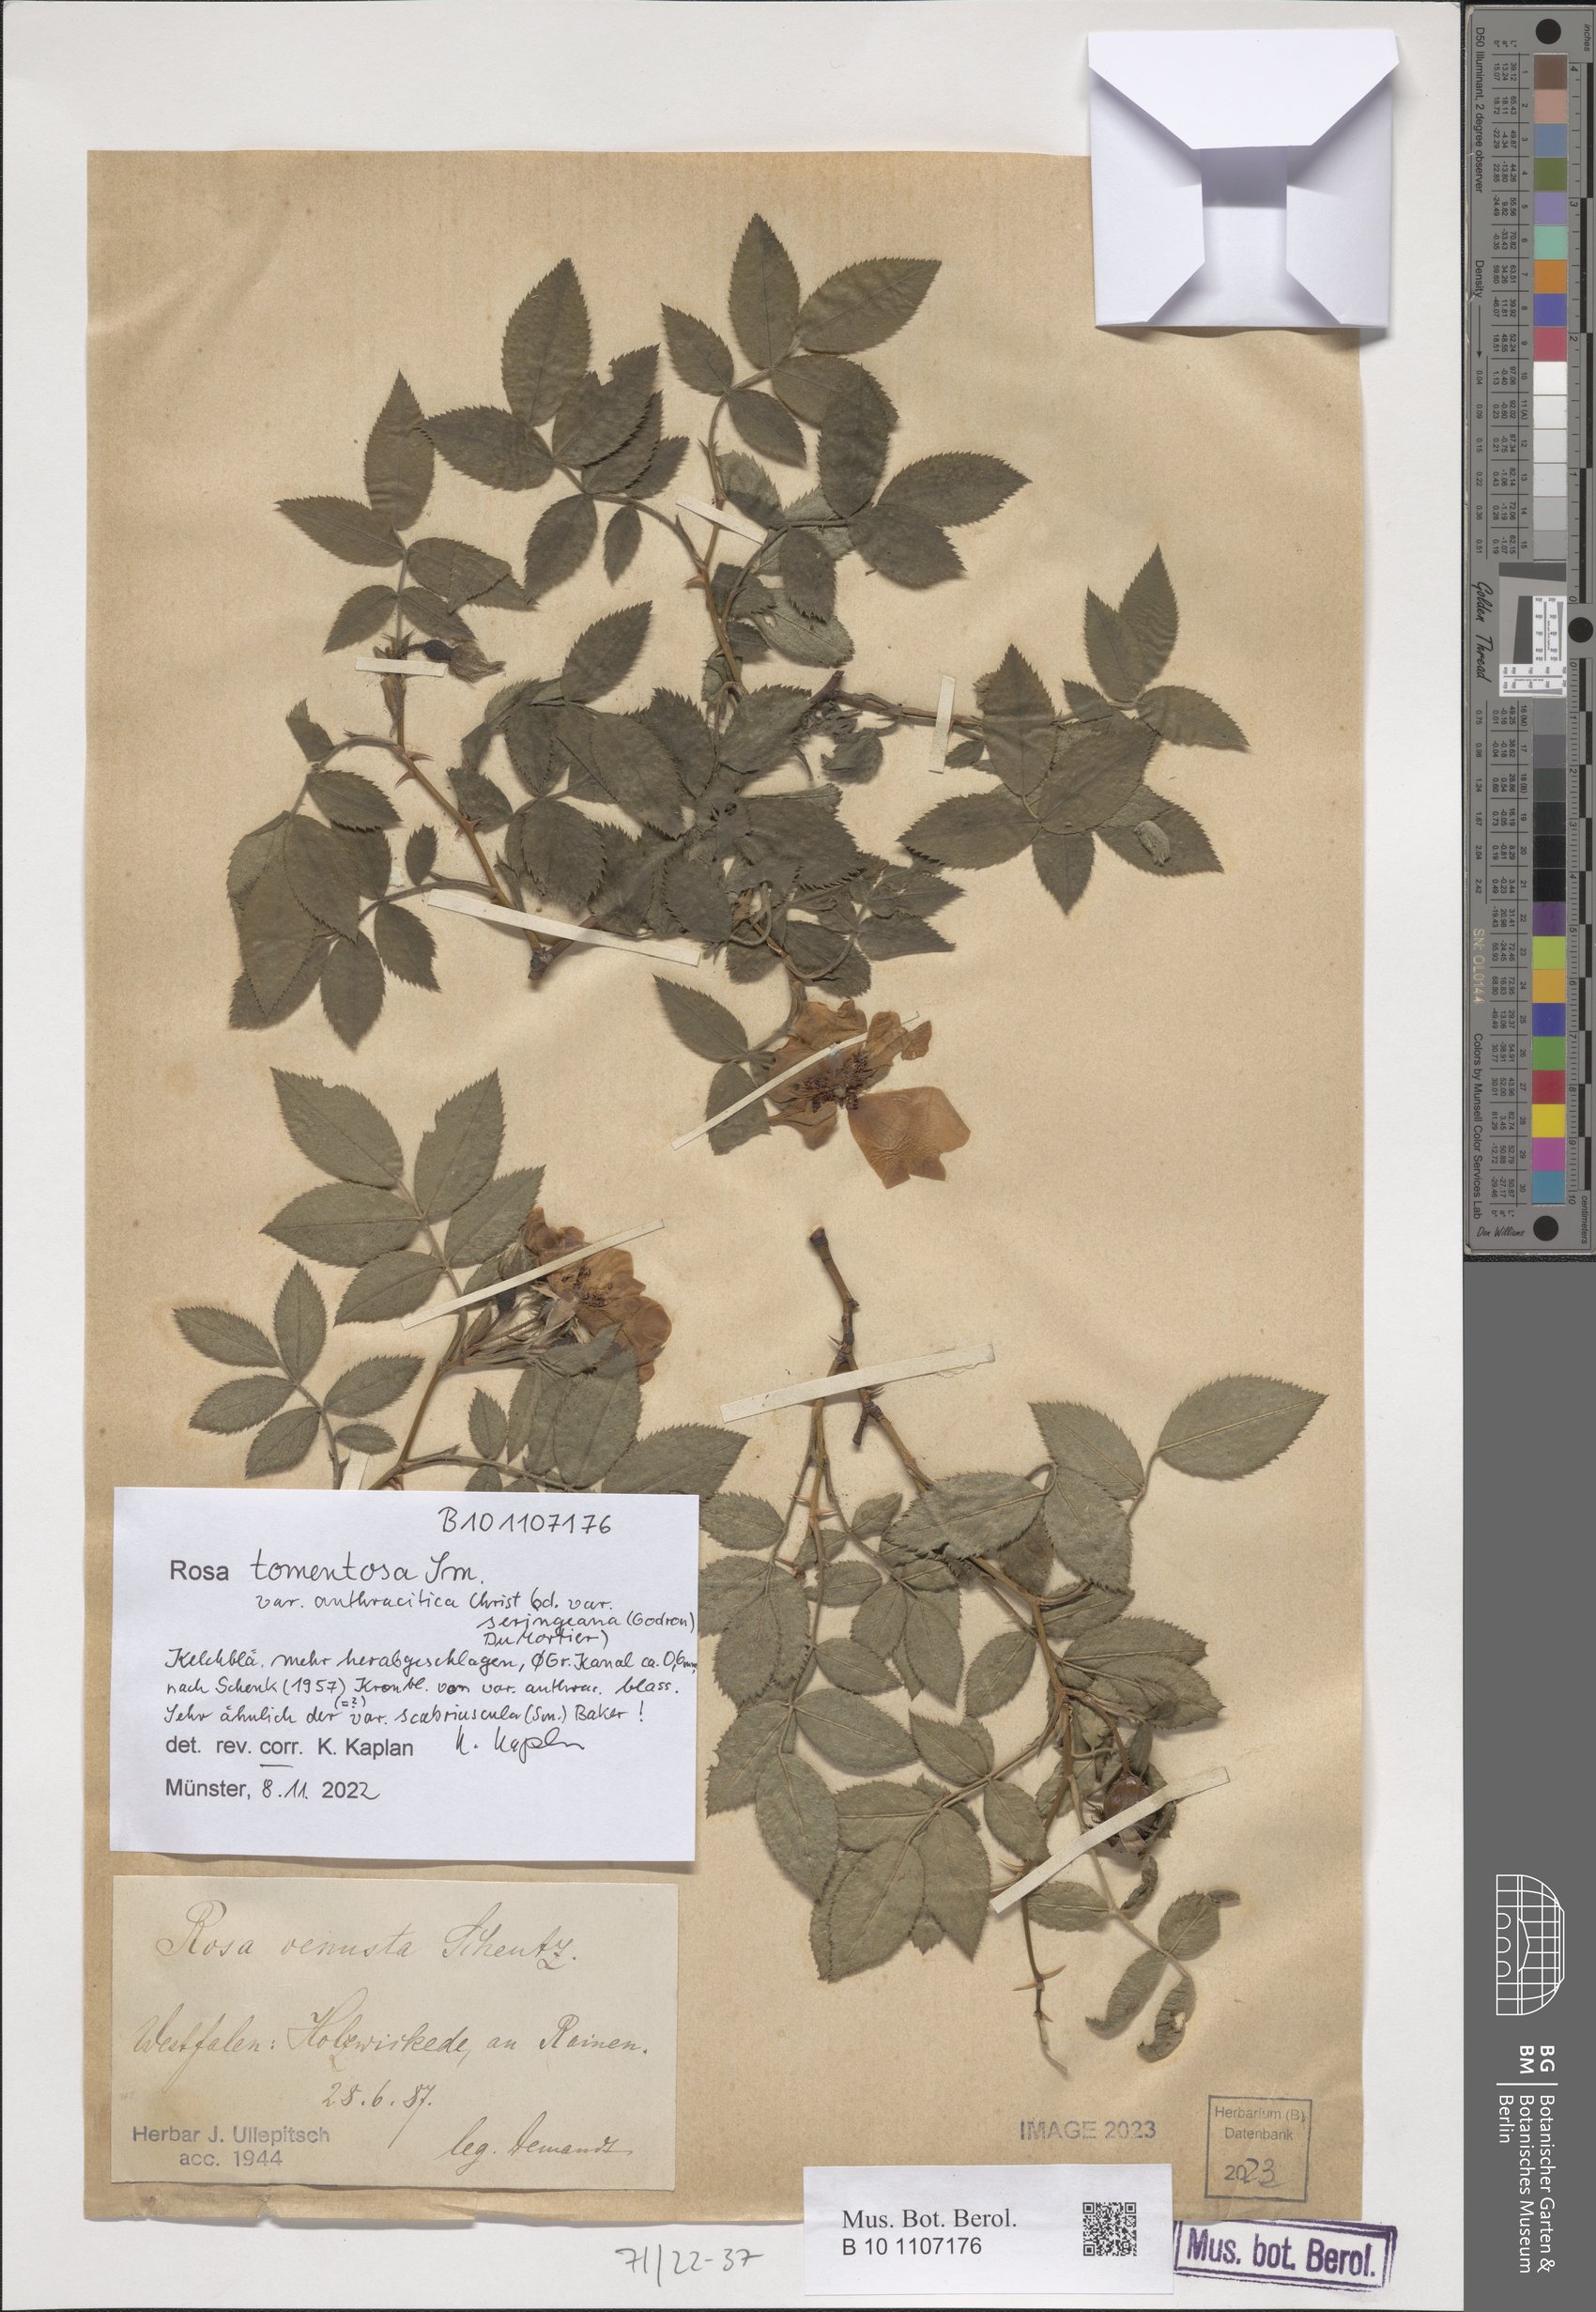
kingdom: Plantae
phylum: Tracheophyta
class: Magnoliopsida
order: Rosales
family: Rosaceae
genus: Rosa
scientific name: Rosa tomentosa
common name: Downy rose
